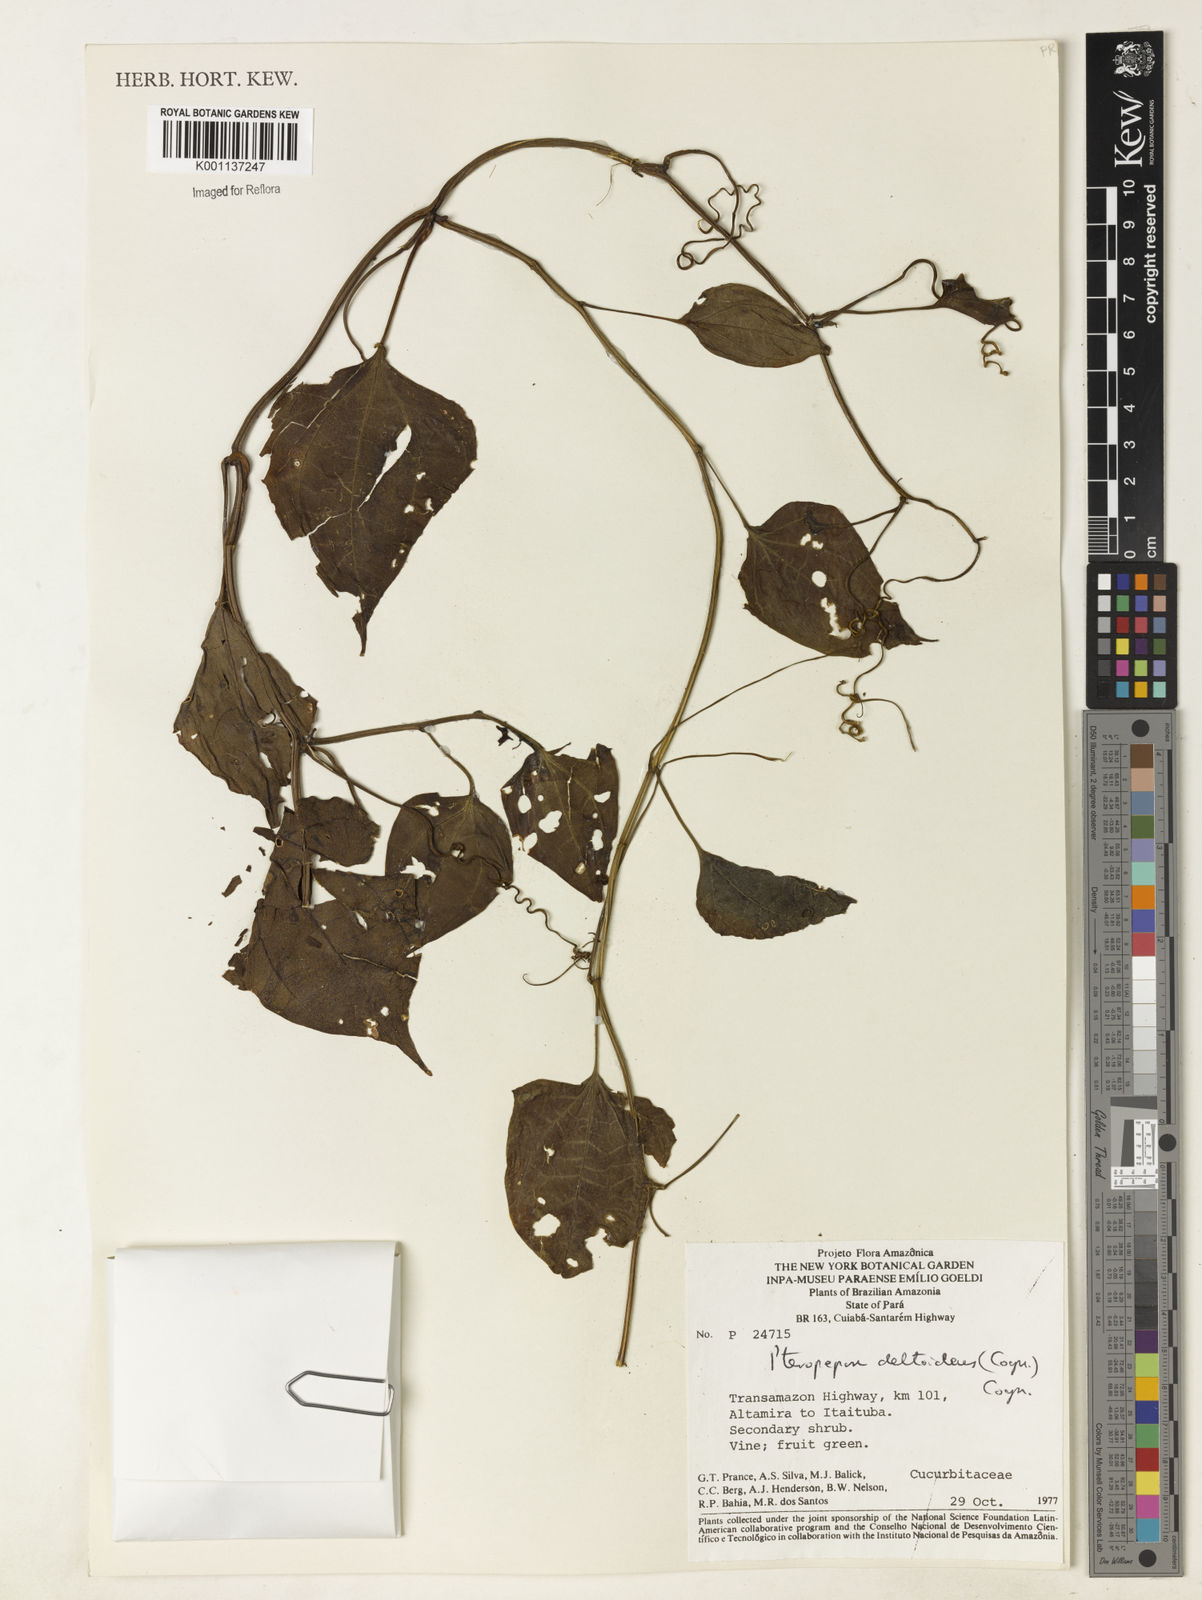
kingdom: Plantae
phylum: Tracheophyta
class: Magnoliopsida
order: Cucurbitales
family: Cucurbitaceae
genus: Pteropepon
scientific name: Pteropepon deltoideus
